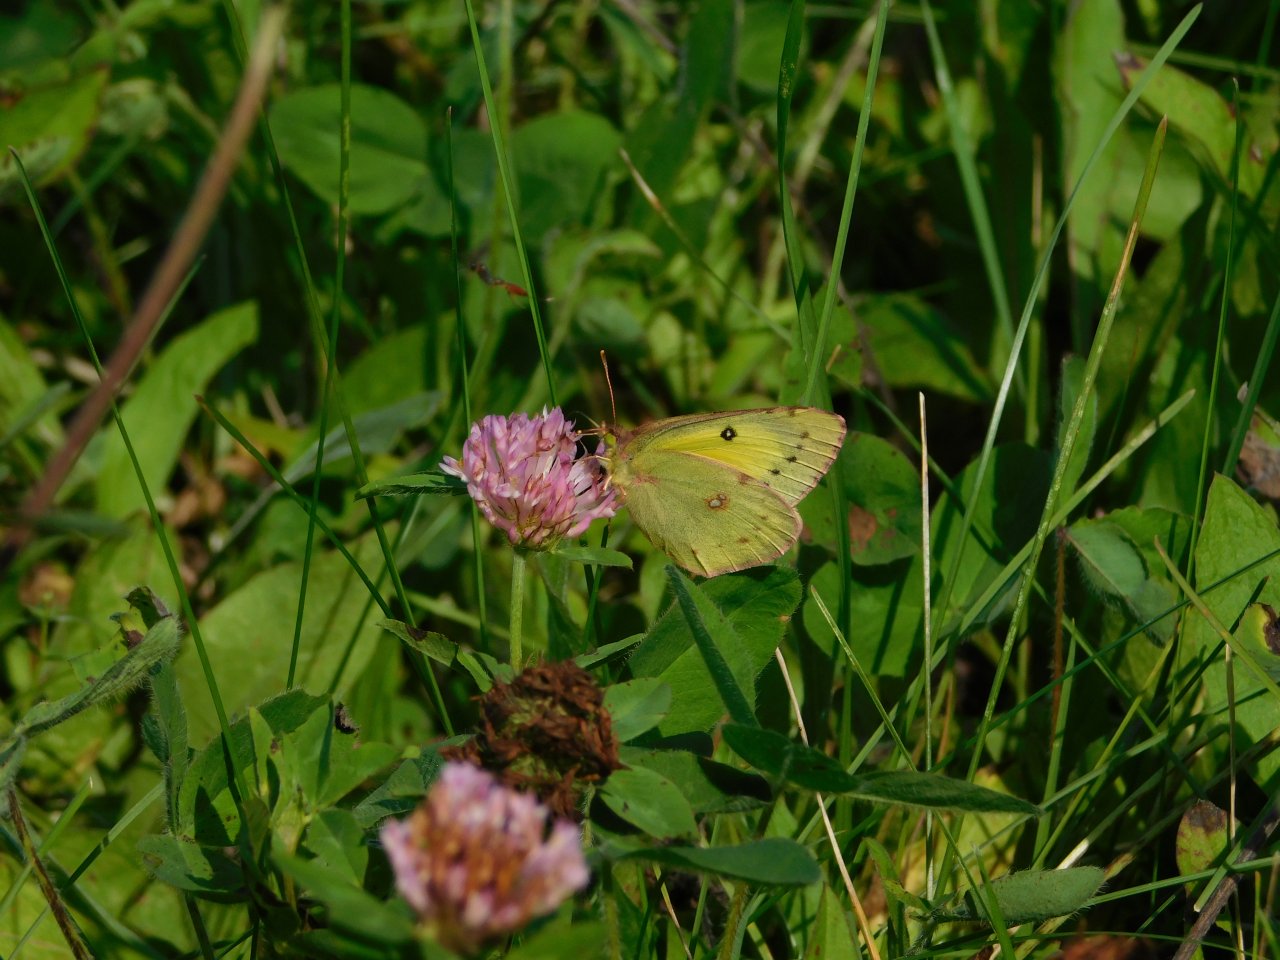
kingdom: Animalia
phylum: Arthropoda
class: Insecta
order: Lepidoptera
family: Pieridae
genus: Colias
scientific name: Colias philodice
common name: Clouded Sulphur
